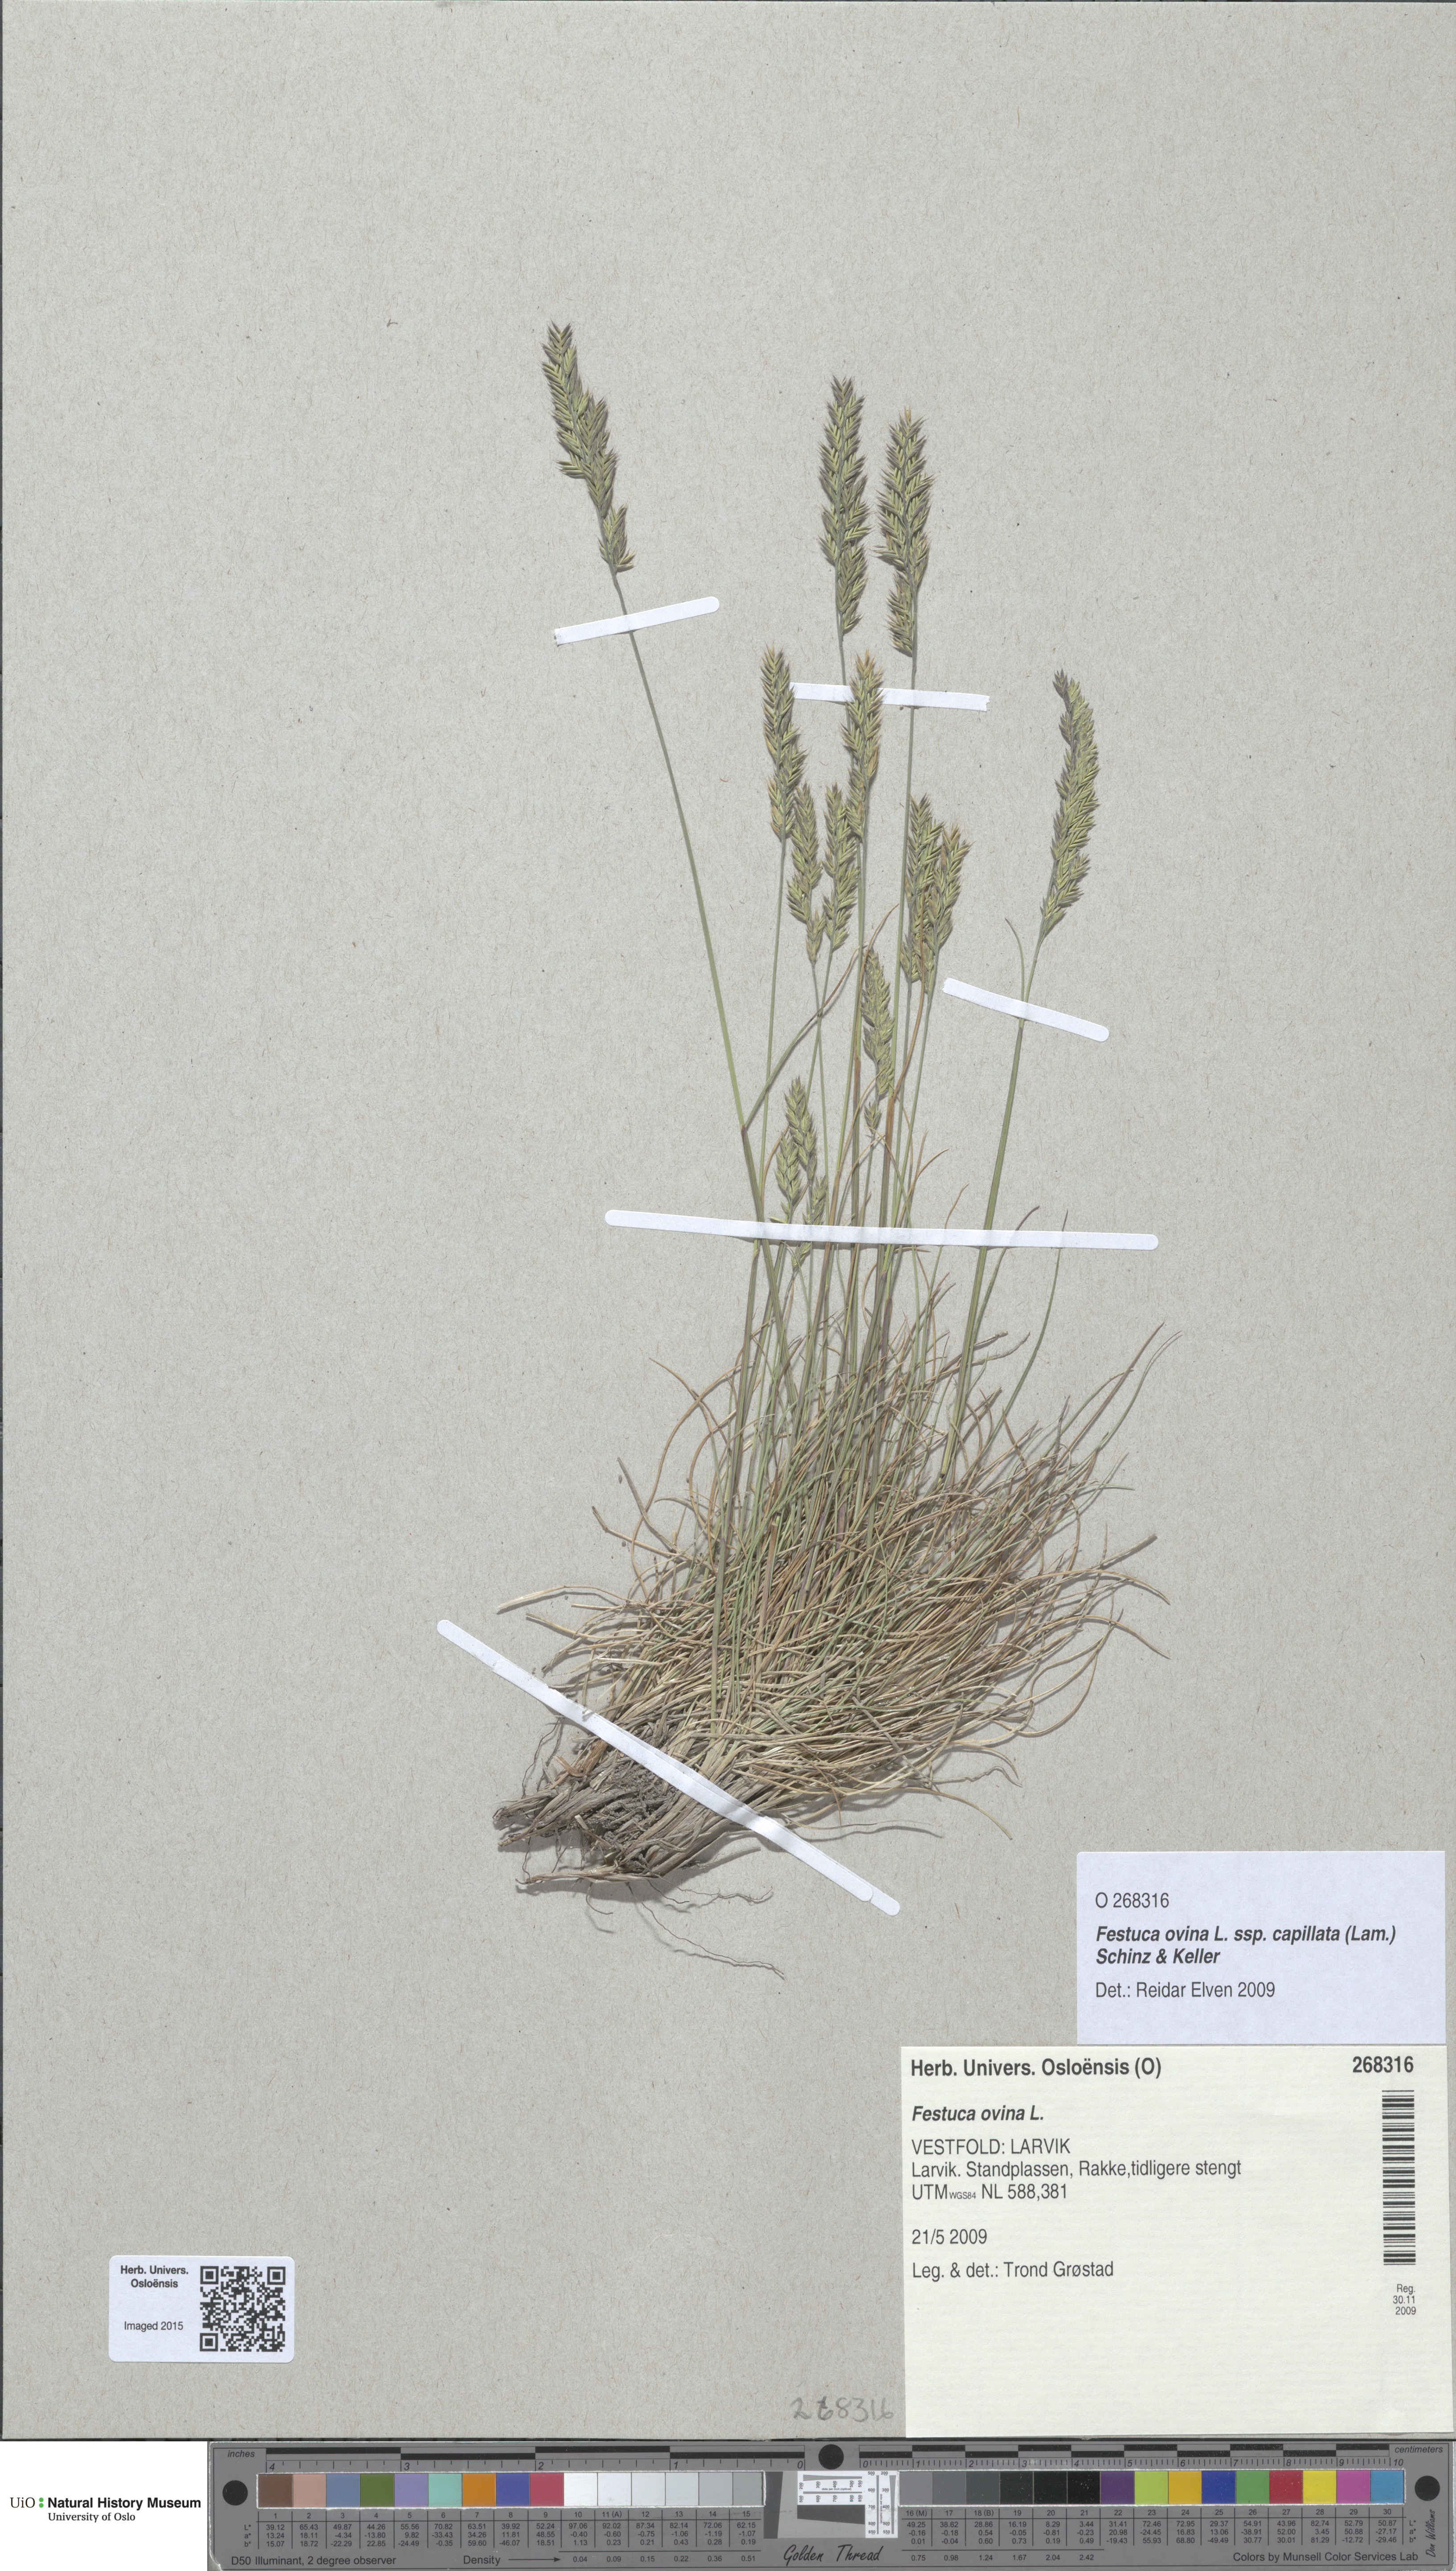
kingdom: Plantae
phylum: Tracheophyta
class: Liliopsida
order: Poales
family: Poaceae
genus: Festuca
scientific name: Festuca filiformis
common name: Fine-leaved sheep's-fescue
